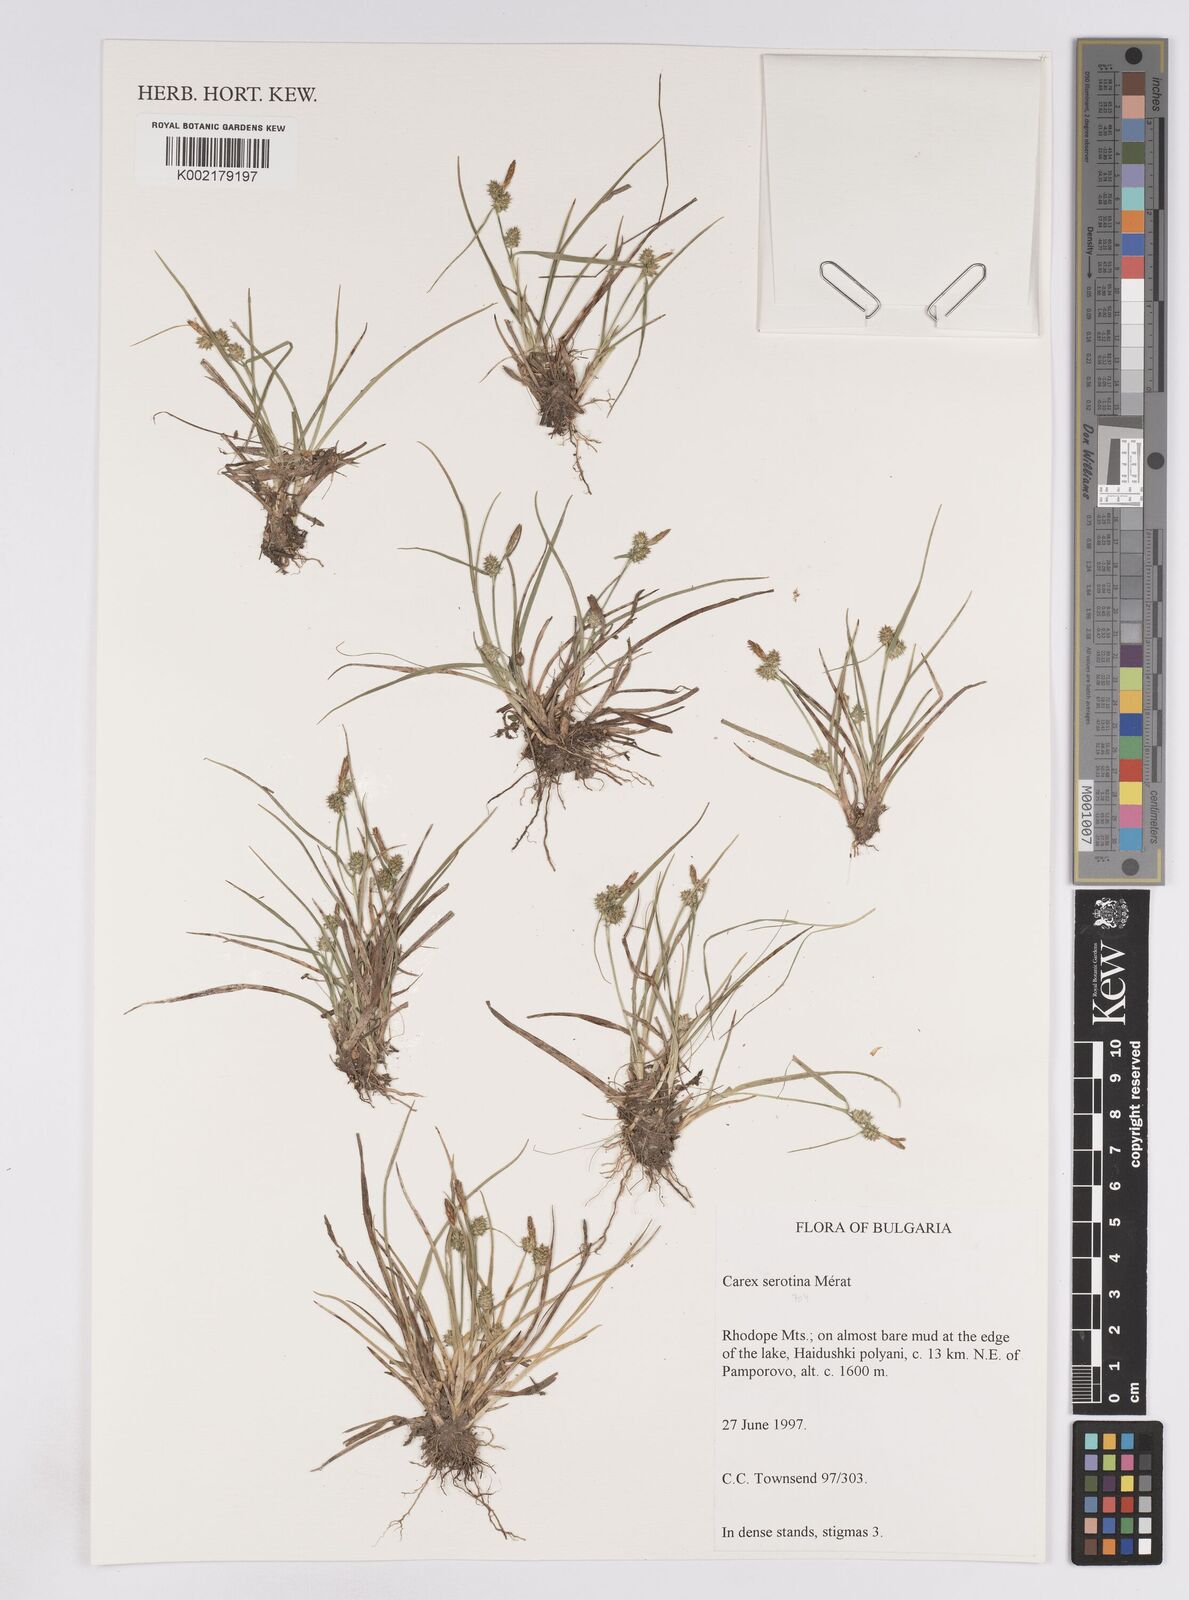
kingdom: Plantae
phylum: Tracheophyta
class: Liliopsida
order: Poales
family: Cyperaceae
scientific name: Cyperaceae
